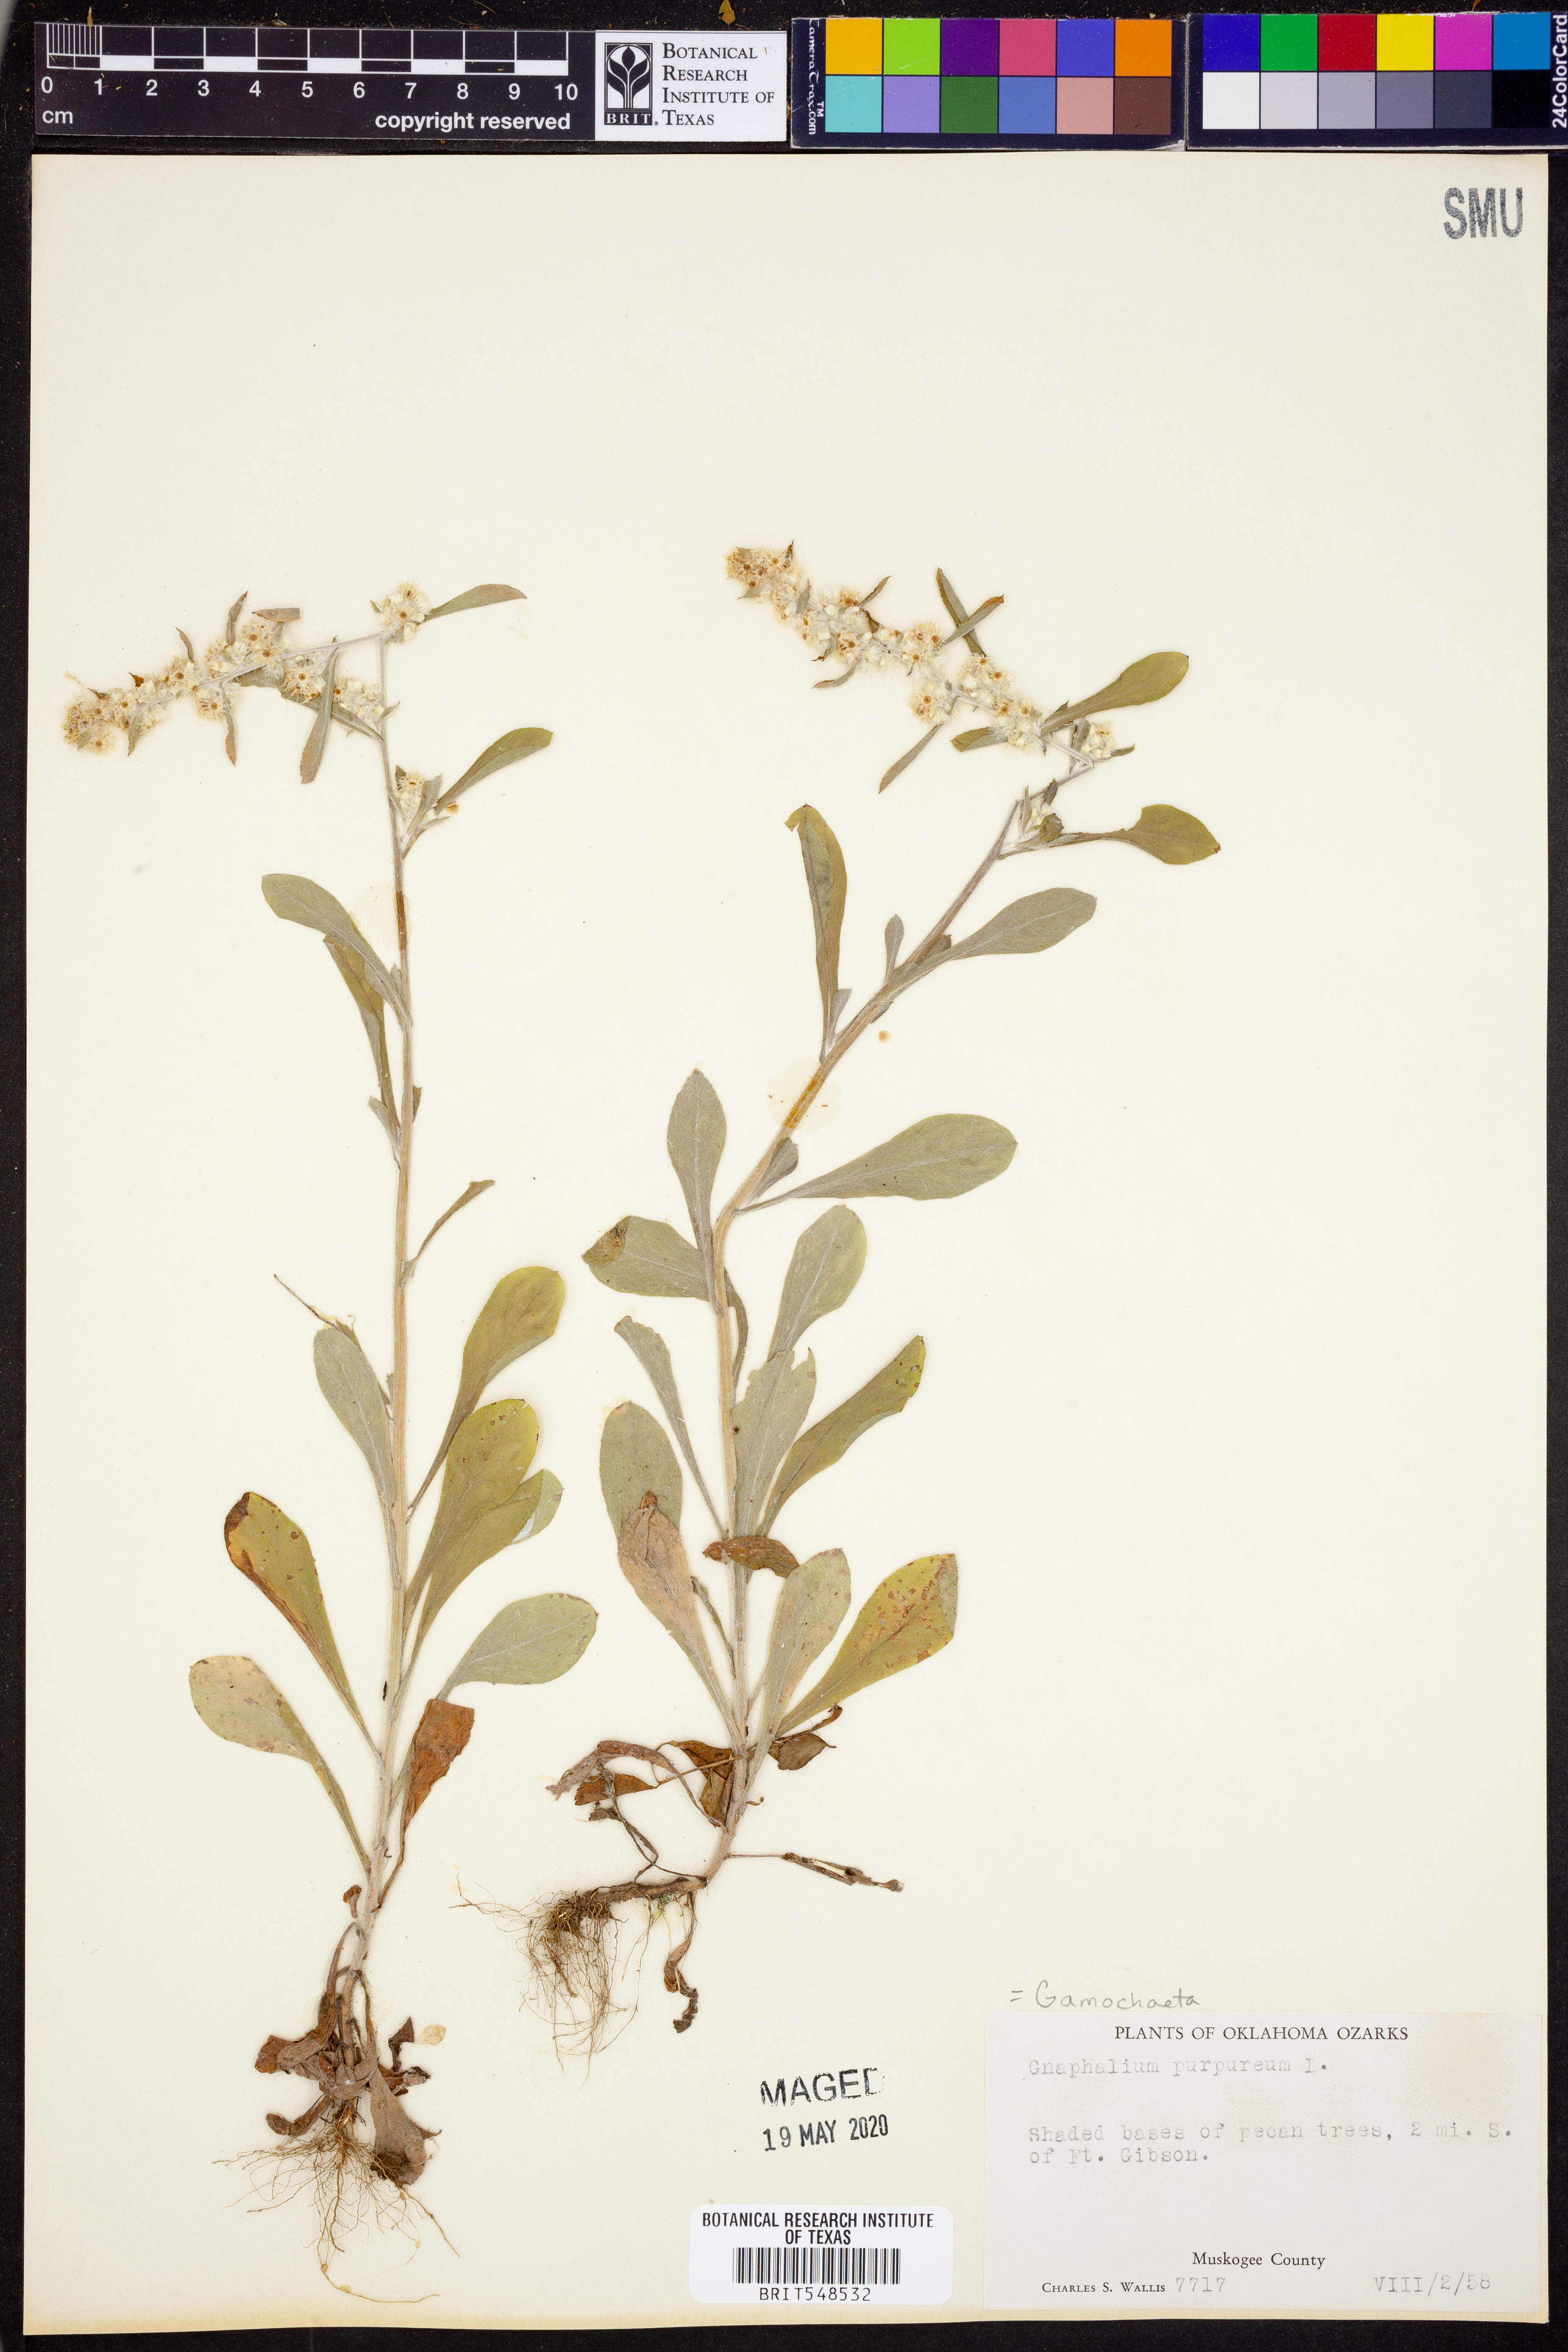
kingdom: Plantae
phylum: Tracheophyta
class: Magnoliopsida
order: Asterales
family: Asteraceae
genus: Gamochaeta
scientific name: Gamochaeta purpurea
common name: Purple cudweed
